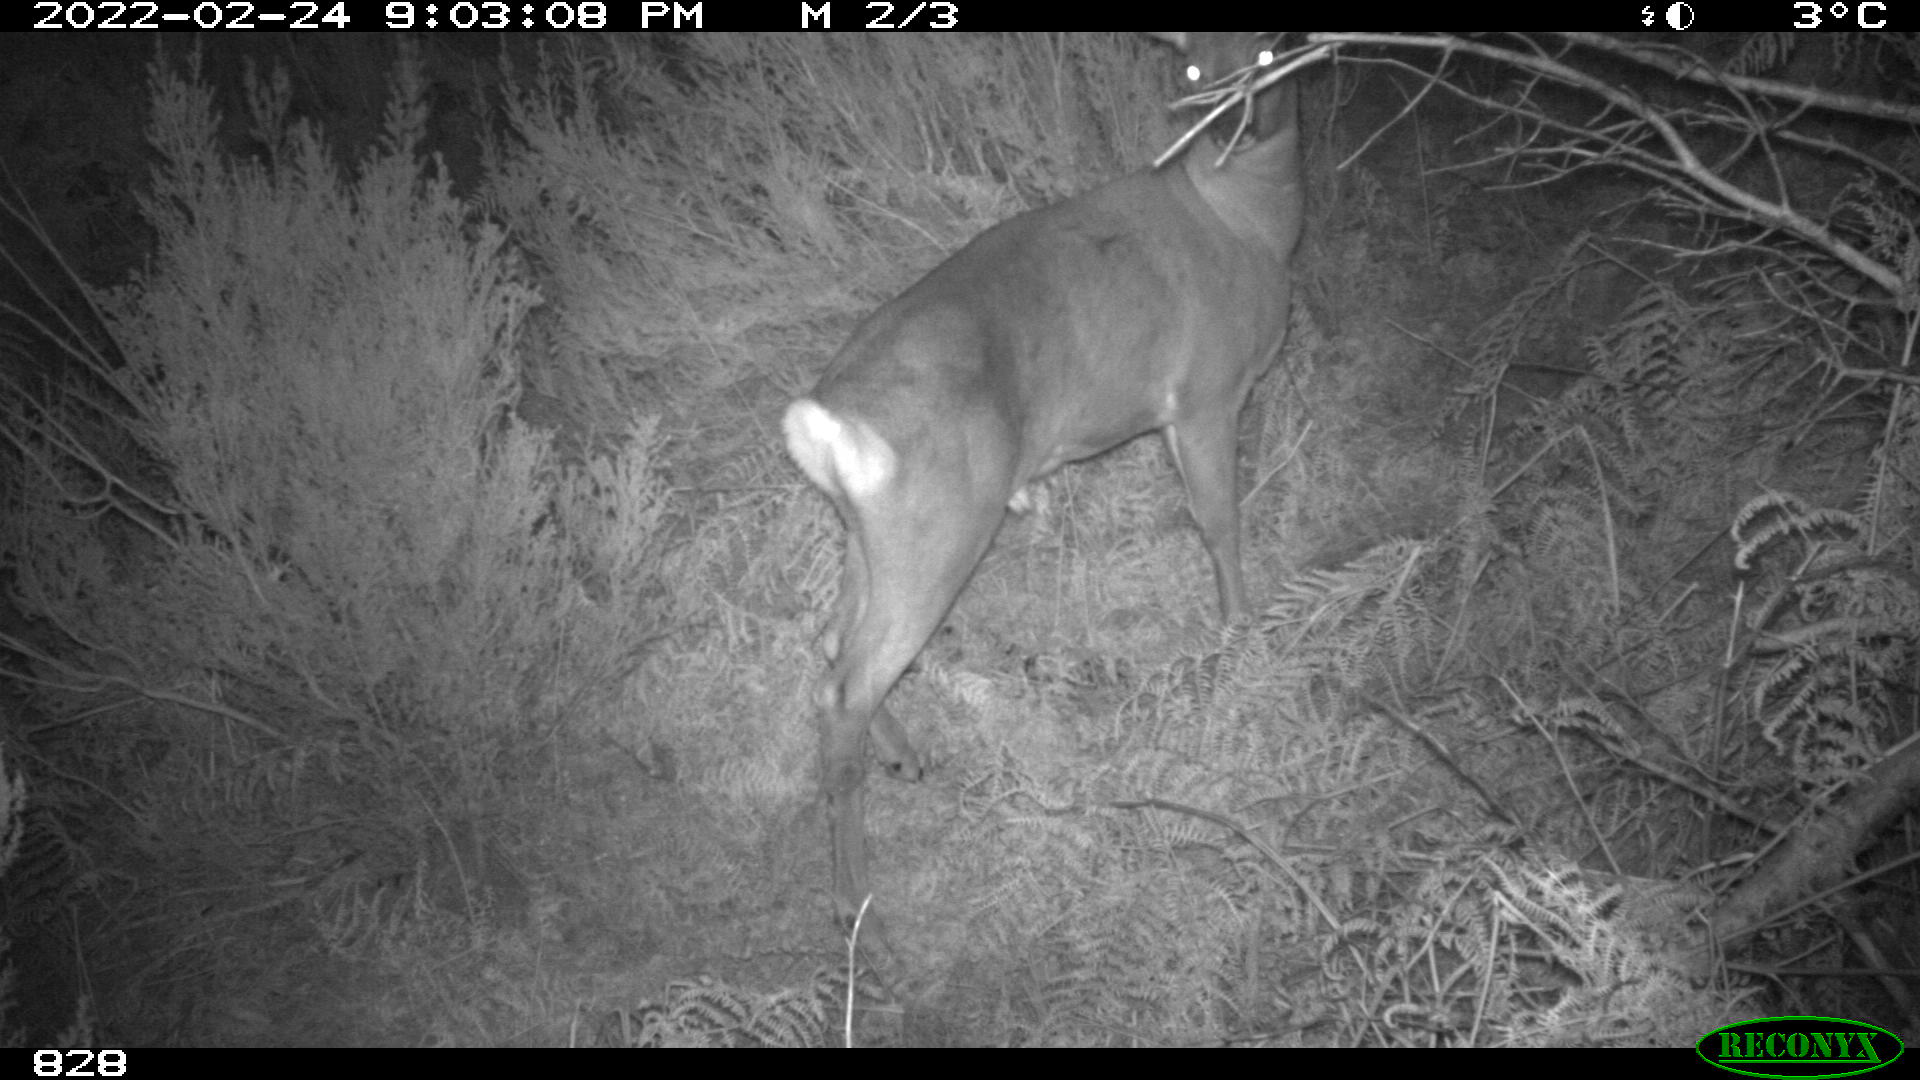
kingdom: Animalia
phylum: Chordata
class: Mammalia
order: Artiodactyla
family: Cervidae
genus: Capreolus
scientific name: Capreolus capreolus
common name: Western roe deer
